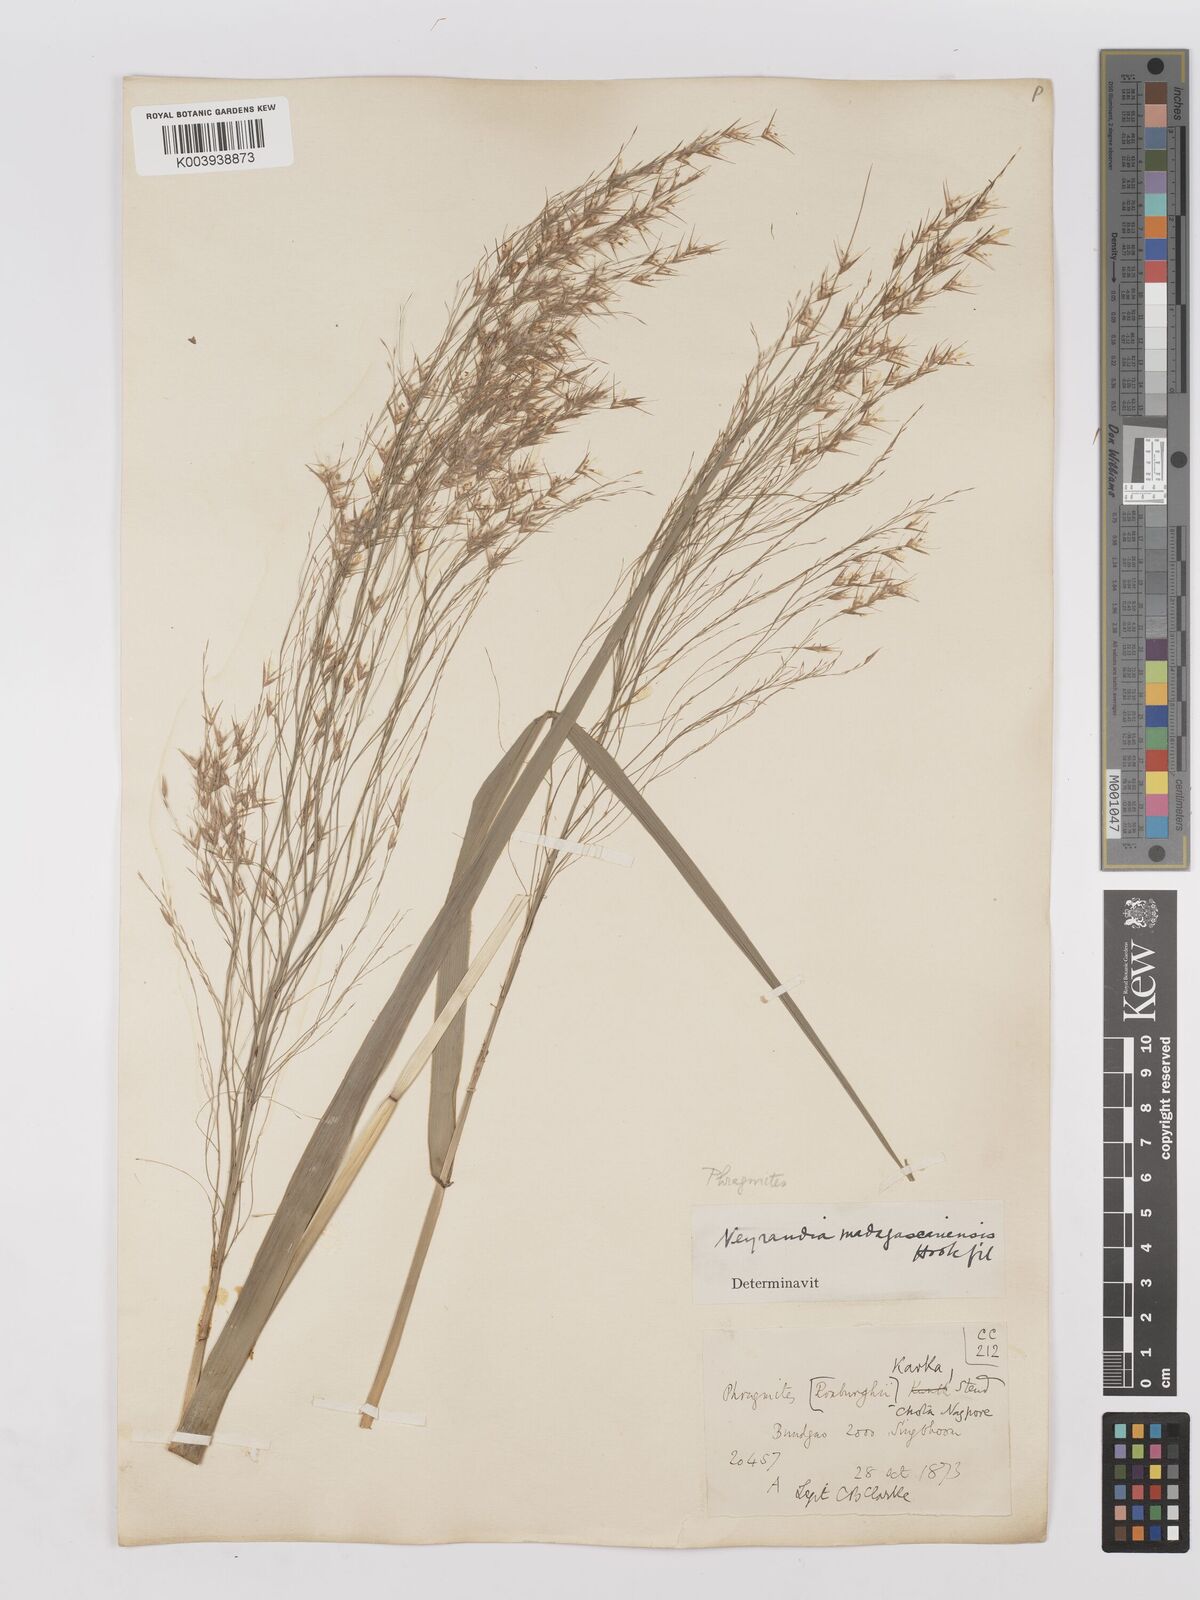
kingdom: Plantae
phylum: Tracheophyta
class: Liliopsida
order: Poales
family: Poaceae
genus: Phragmites
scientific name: Phragmites karka
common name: Tropical reed
